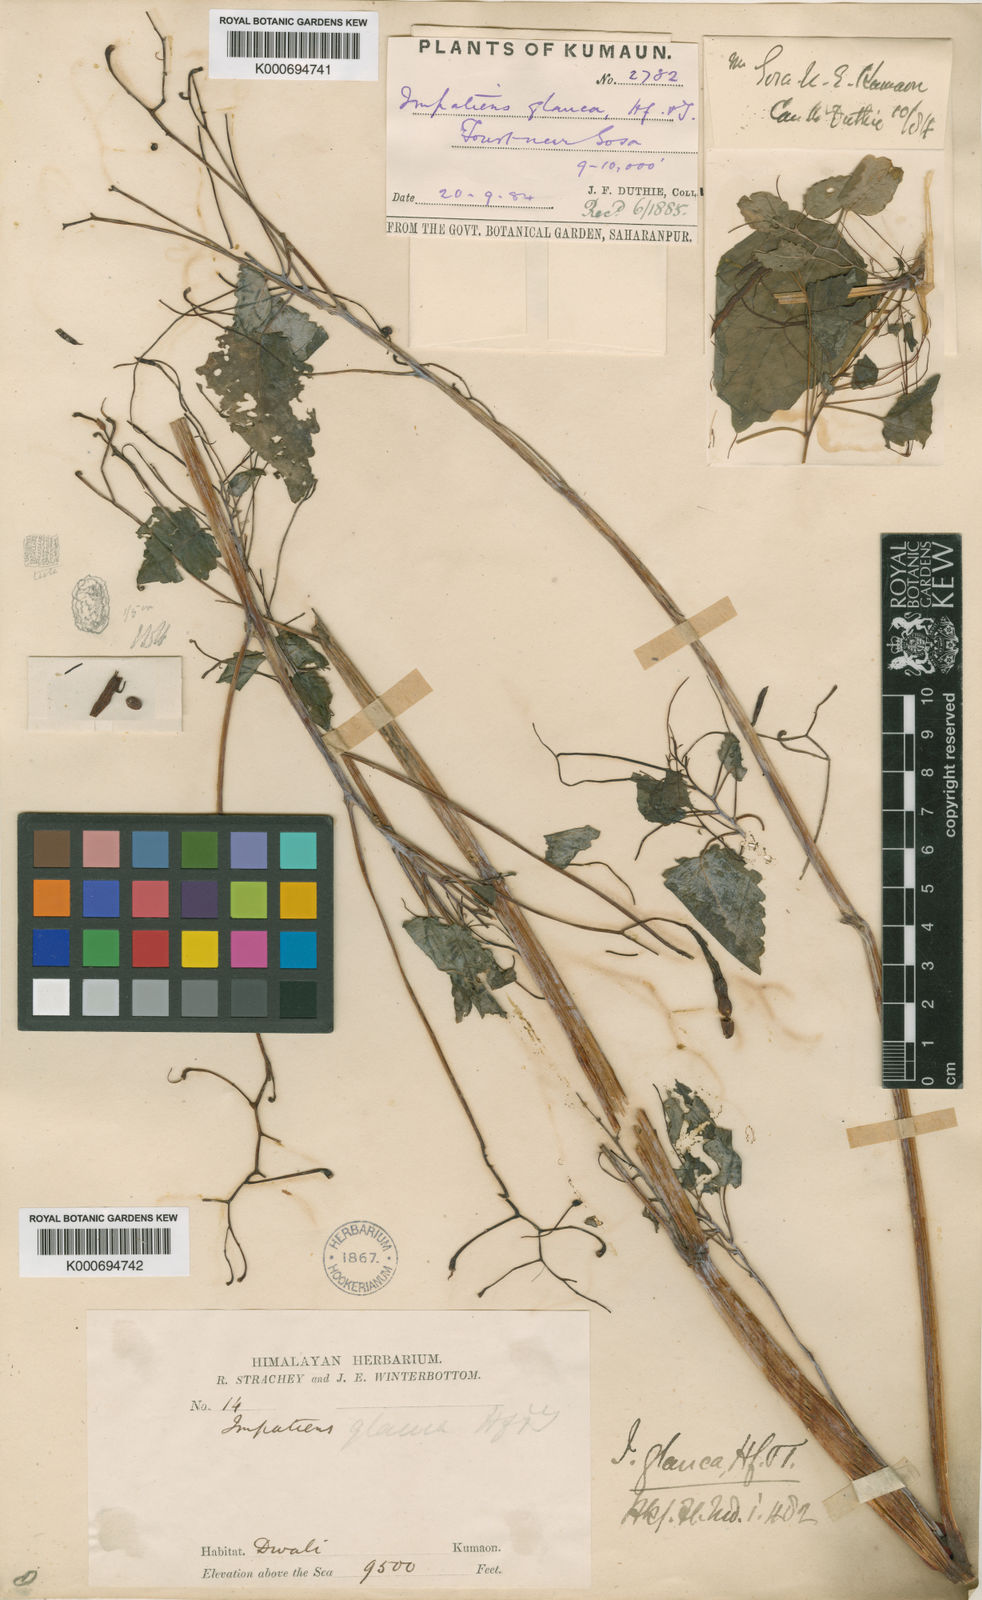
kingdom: Plantae
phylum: Tracheophyta
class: Magnoliopsida
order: Ericales
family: Balsaminaceae
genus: Impatiens
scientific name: Impatiens glauca
